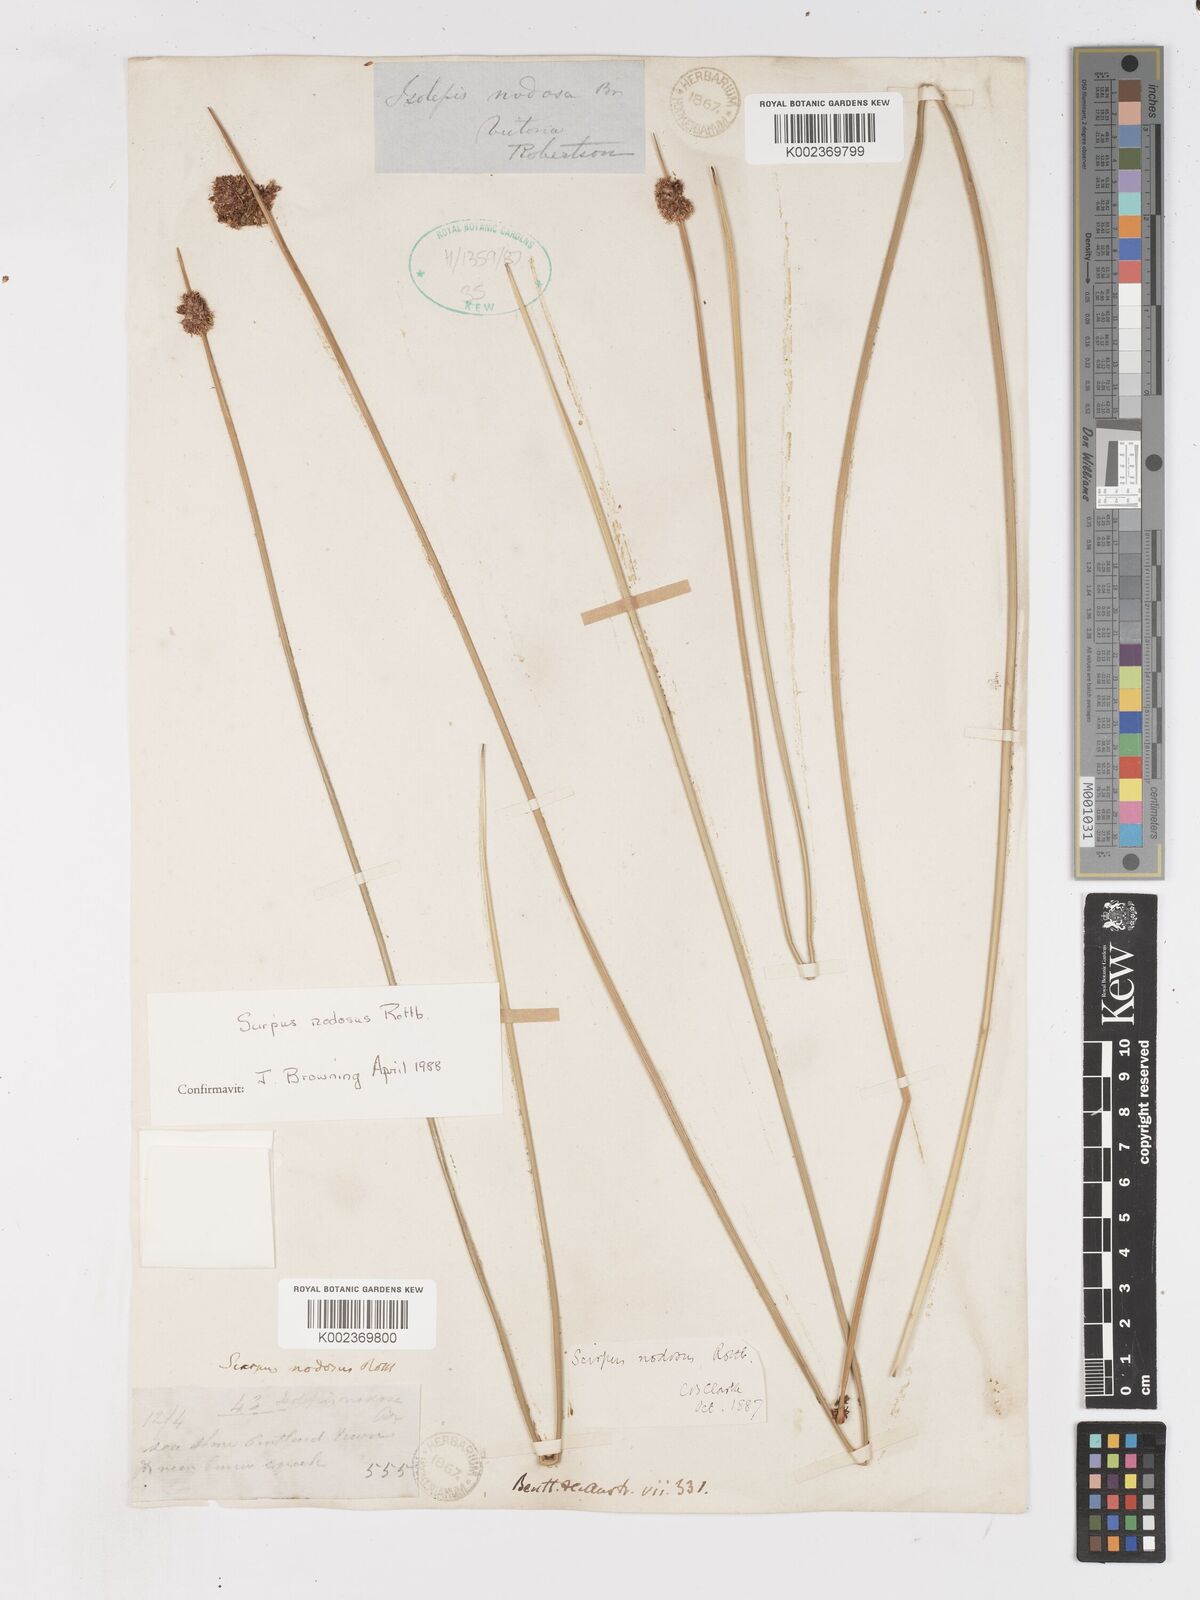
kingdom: Plantae
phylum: Tracheophyta
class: Liliopsida
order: Poales
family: Cyperaceae
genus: Ficinia
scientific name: Ficinia nodosa
